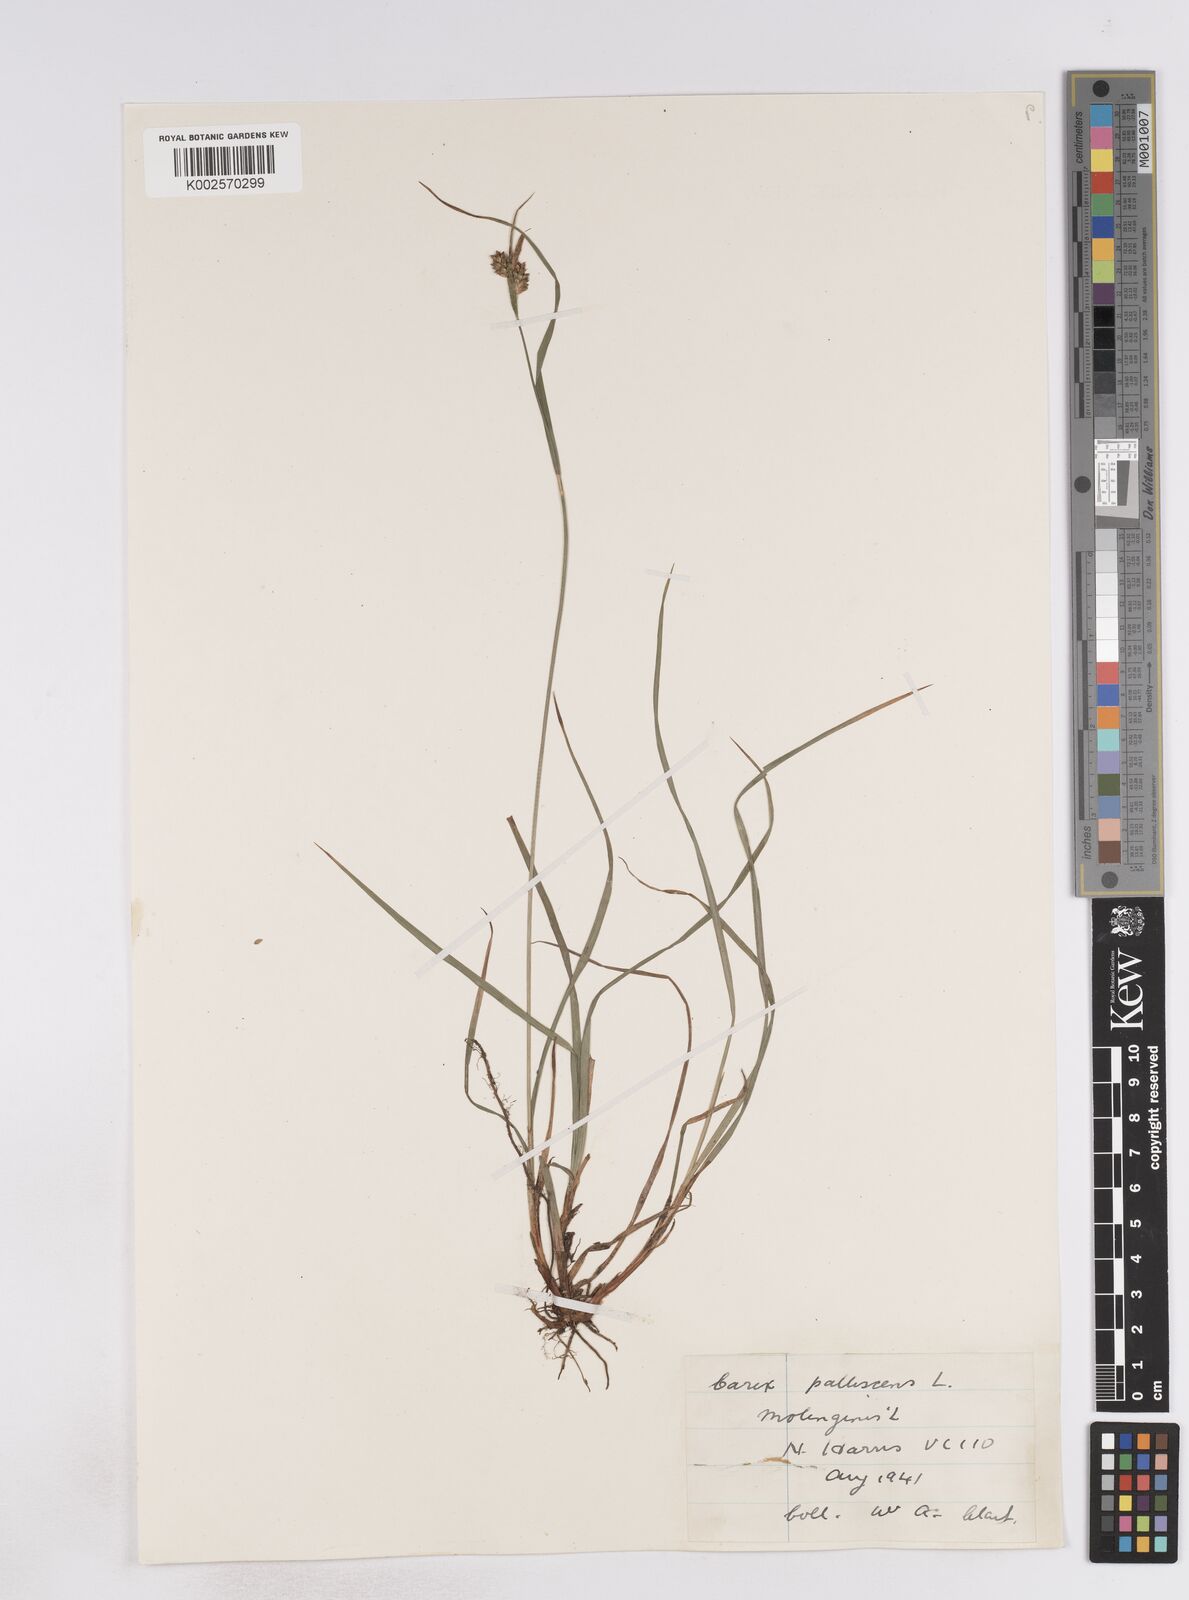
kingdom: Plantae
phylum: Tracheophyta
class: Liliopsida
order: Poales
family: Cyperaceae
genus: Carex
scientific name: Carex pallescens
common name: Pale sedge
